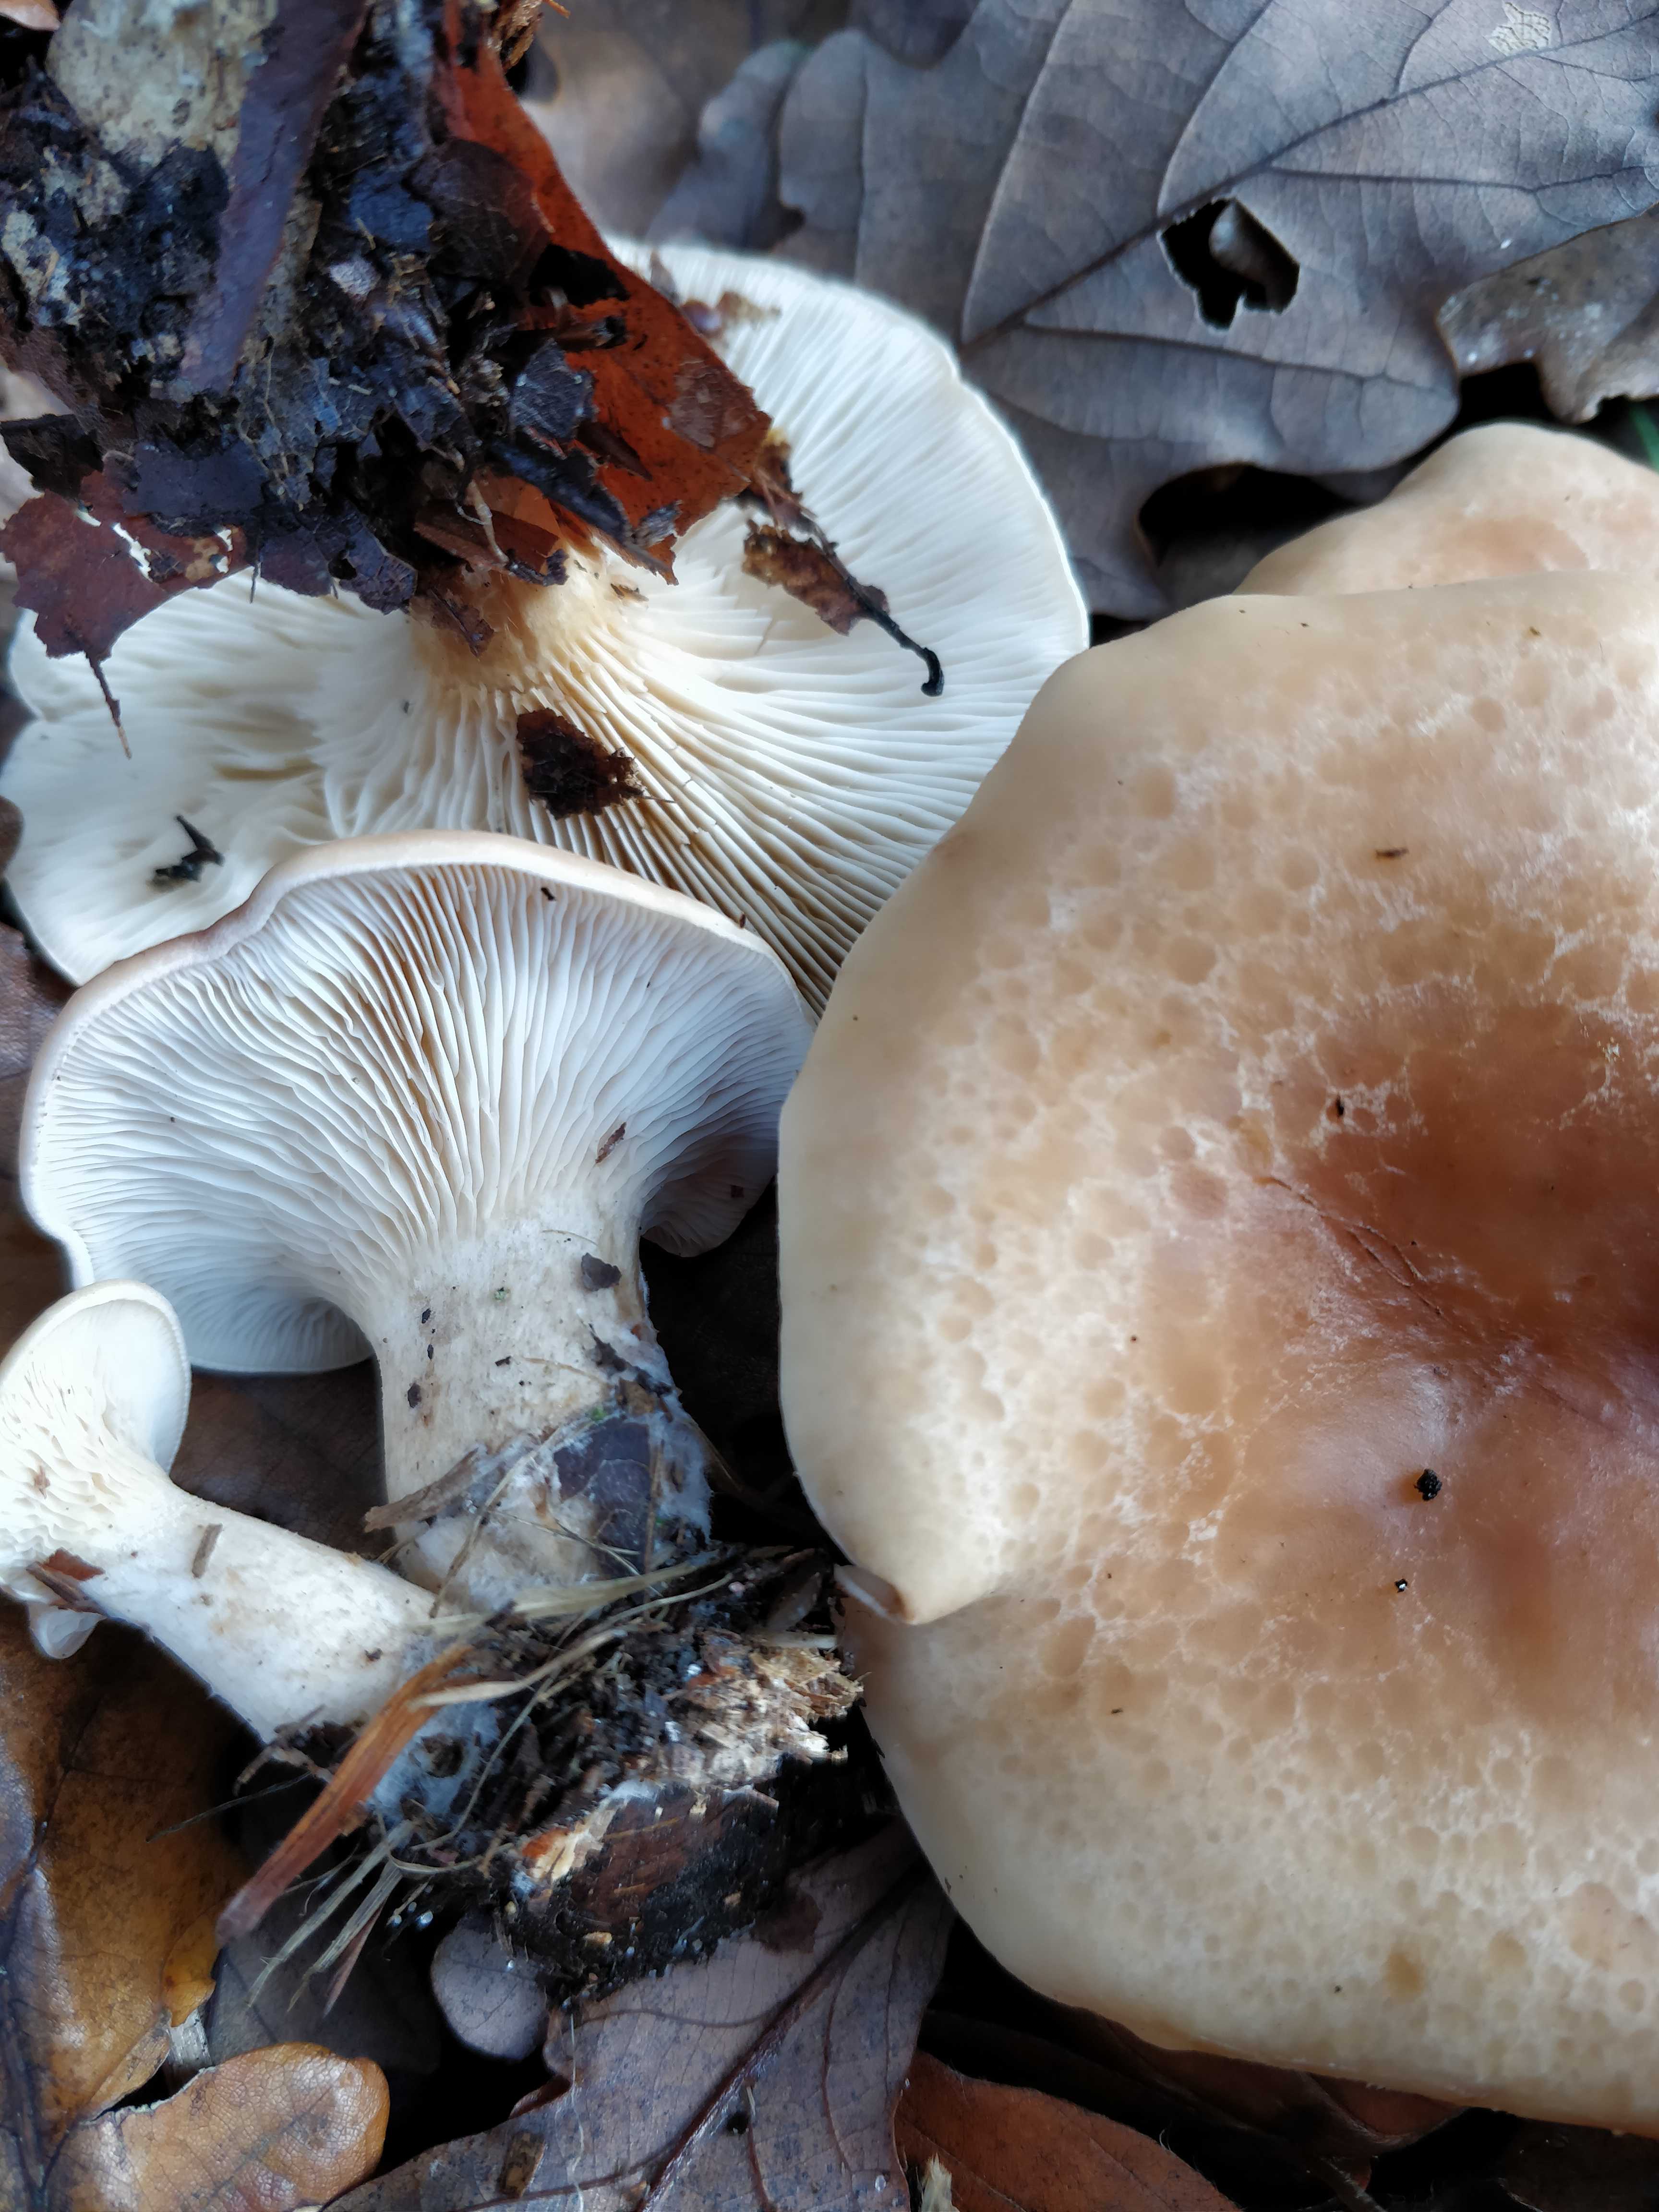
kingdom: Fungi
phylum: Basidiomycota
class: Agaricomycetes
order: Agaricales
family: Tricholomataceae
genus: Paralepista
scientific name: Paralepista gilva
